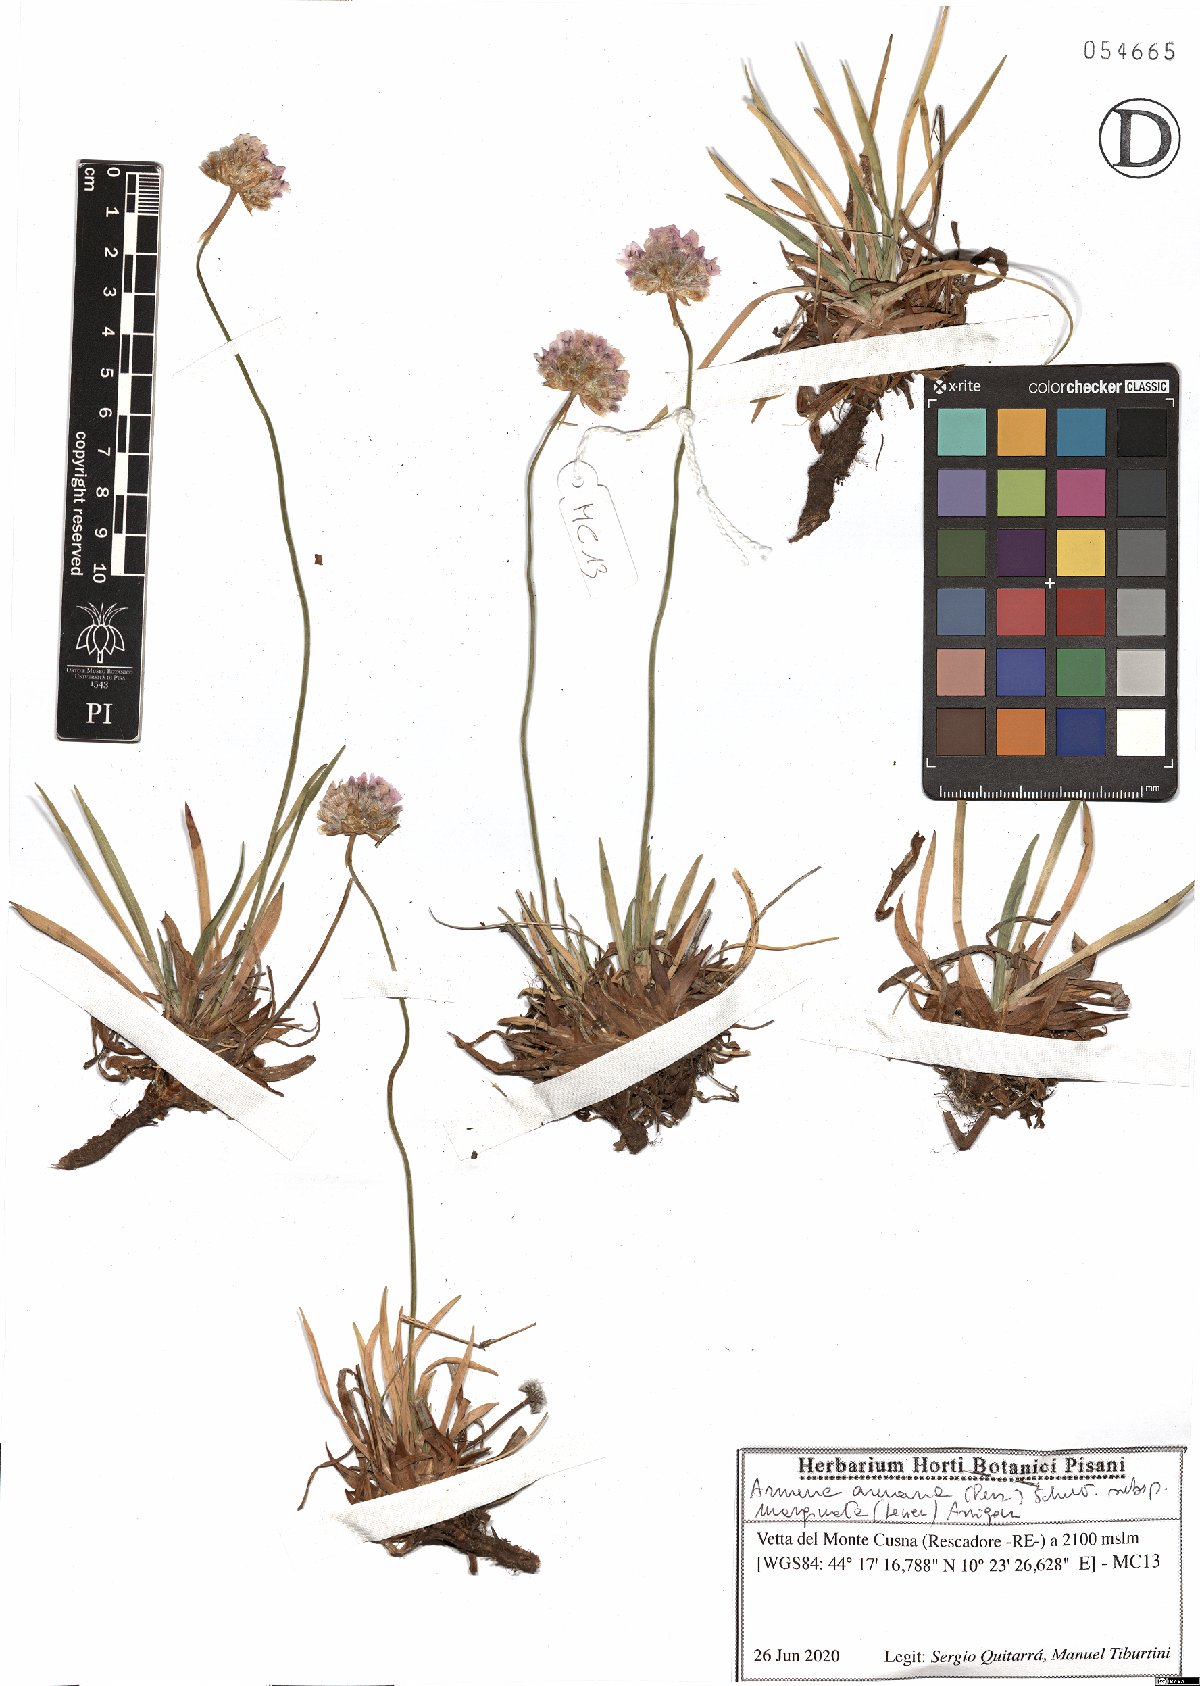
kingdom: Plantae
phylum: Tracheophyta
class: Magnoliopsida
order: Caryophyllales
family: Plumbaginaceae
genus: Armeria
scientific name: Armeria arenaria
